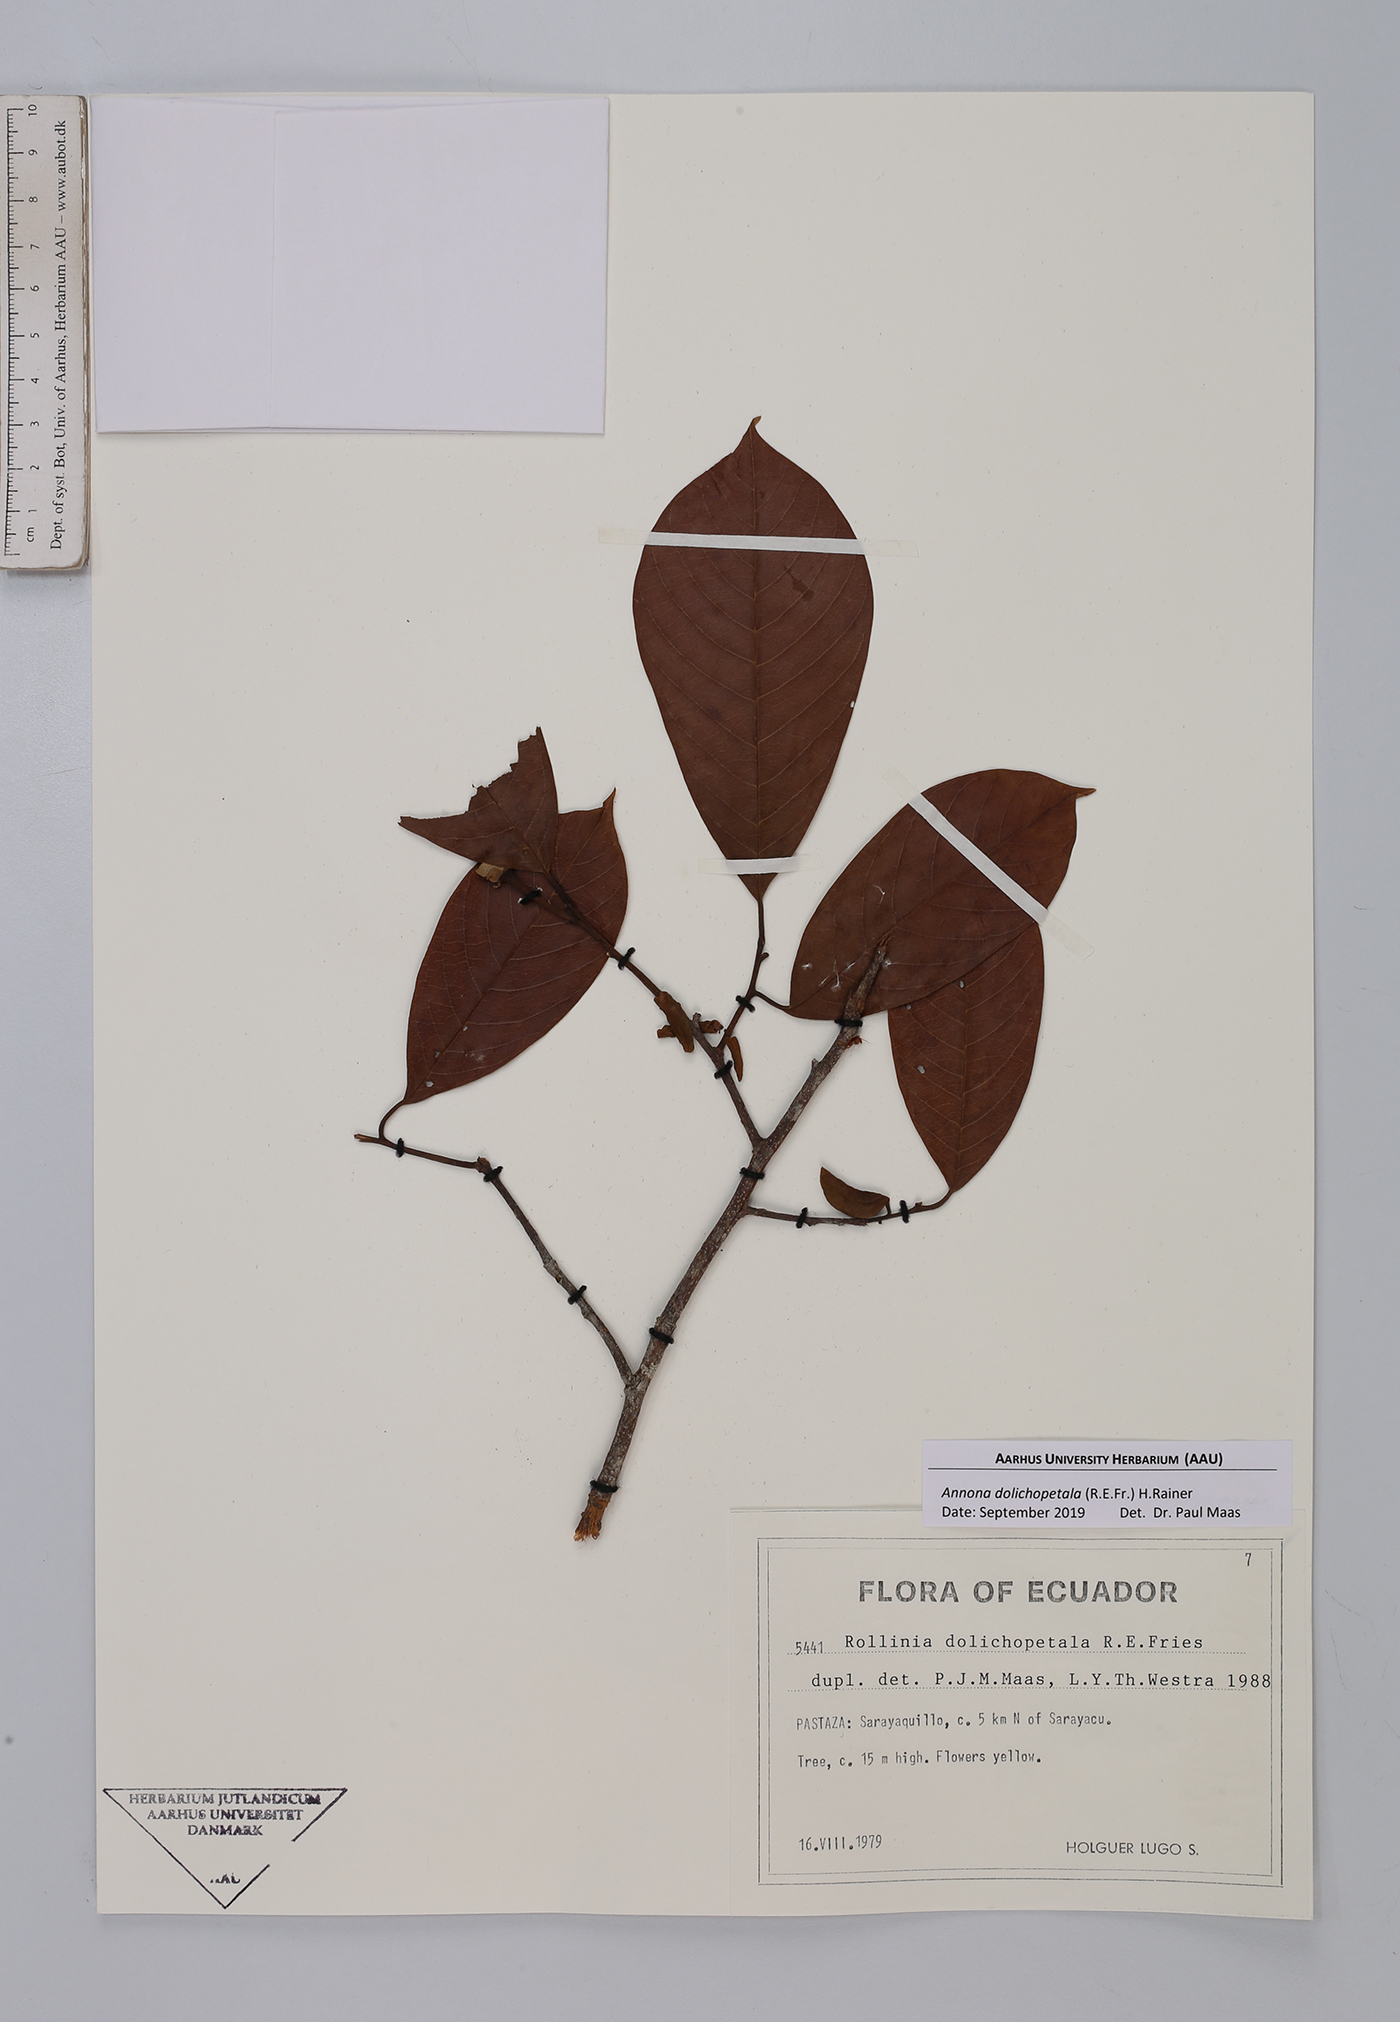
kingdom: Plantae
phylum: Tracheophyta
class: Magnoliopsida
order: Magnoliales
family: Annonaceae
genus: Annona
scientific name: Annona dolichopetala
